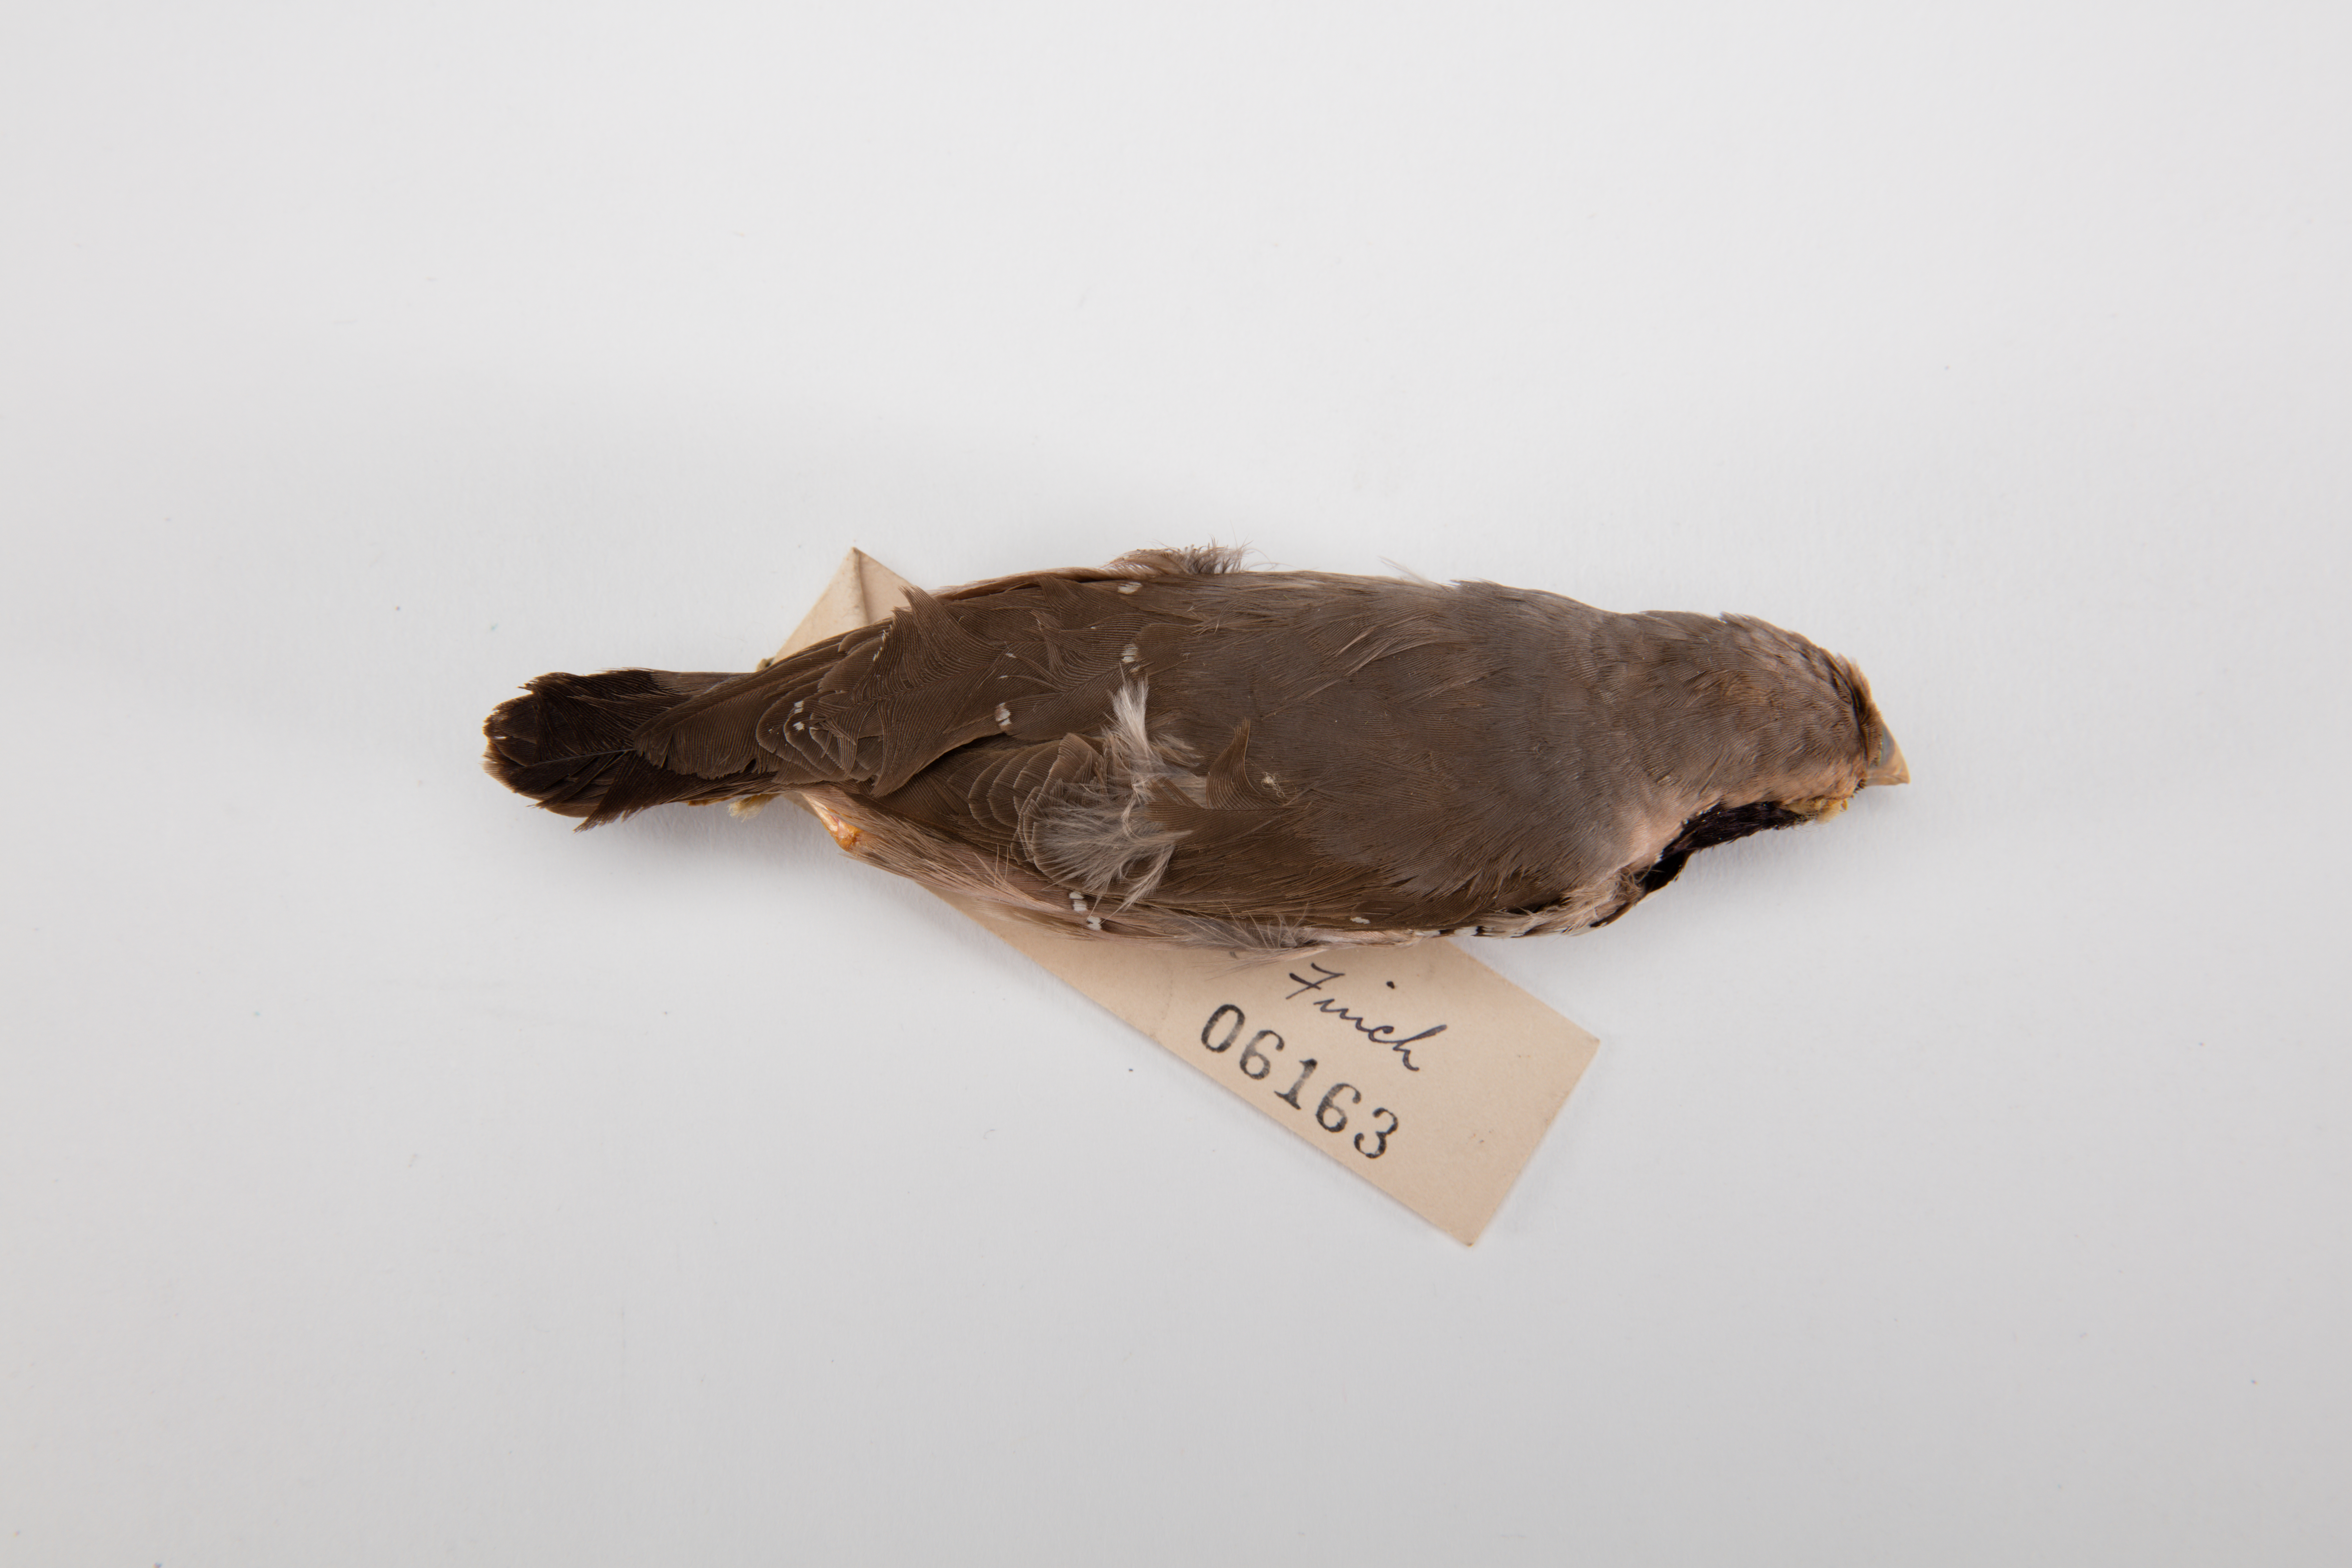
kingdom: Animalia
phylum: Chordata
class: Aves
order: Passeriformes
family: Estrildidae
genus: Heteromunia
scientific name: Heteromunia pectoralis
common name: Pictorella munia
